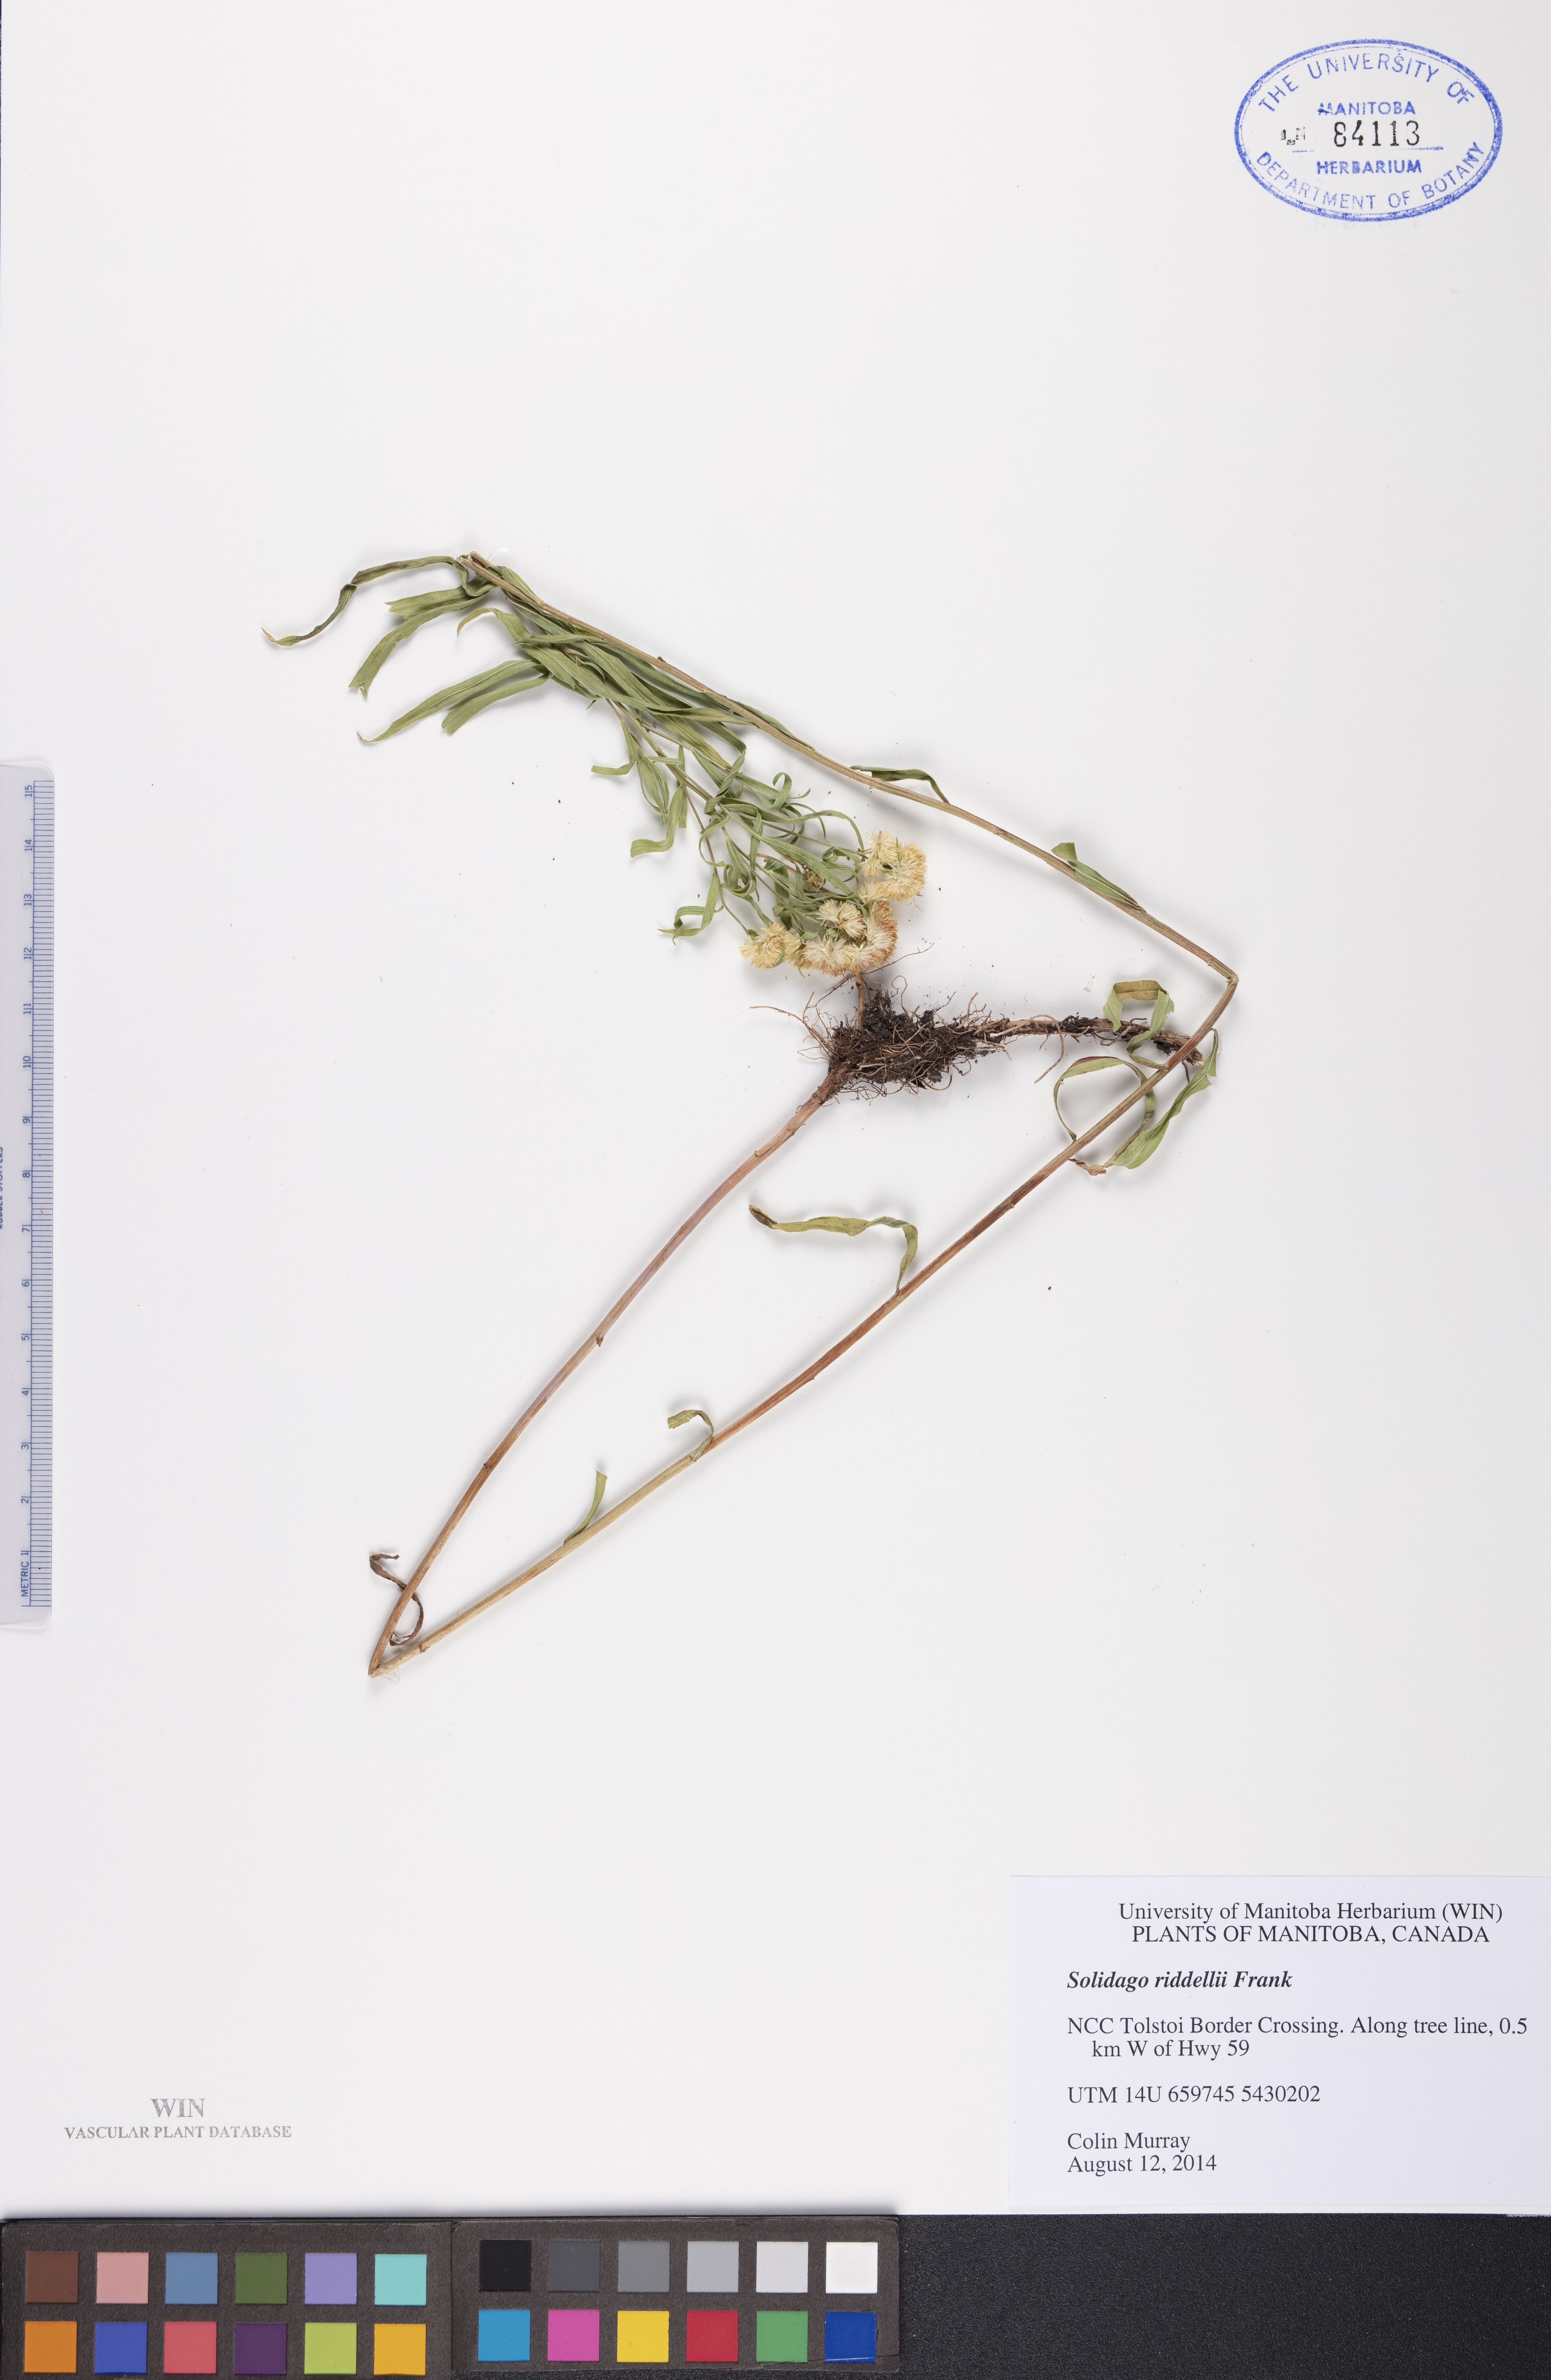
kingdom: Plantae
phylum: Tracheophyta
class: Magnoliopsida
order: Asterales
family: Asteraceae
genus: Solidago
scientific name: Solidago riddellii
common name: Riddell's goldenrod
